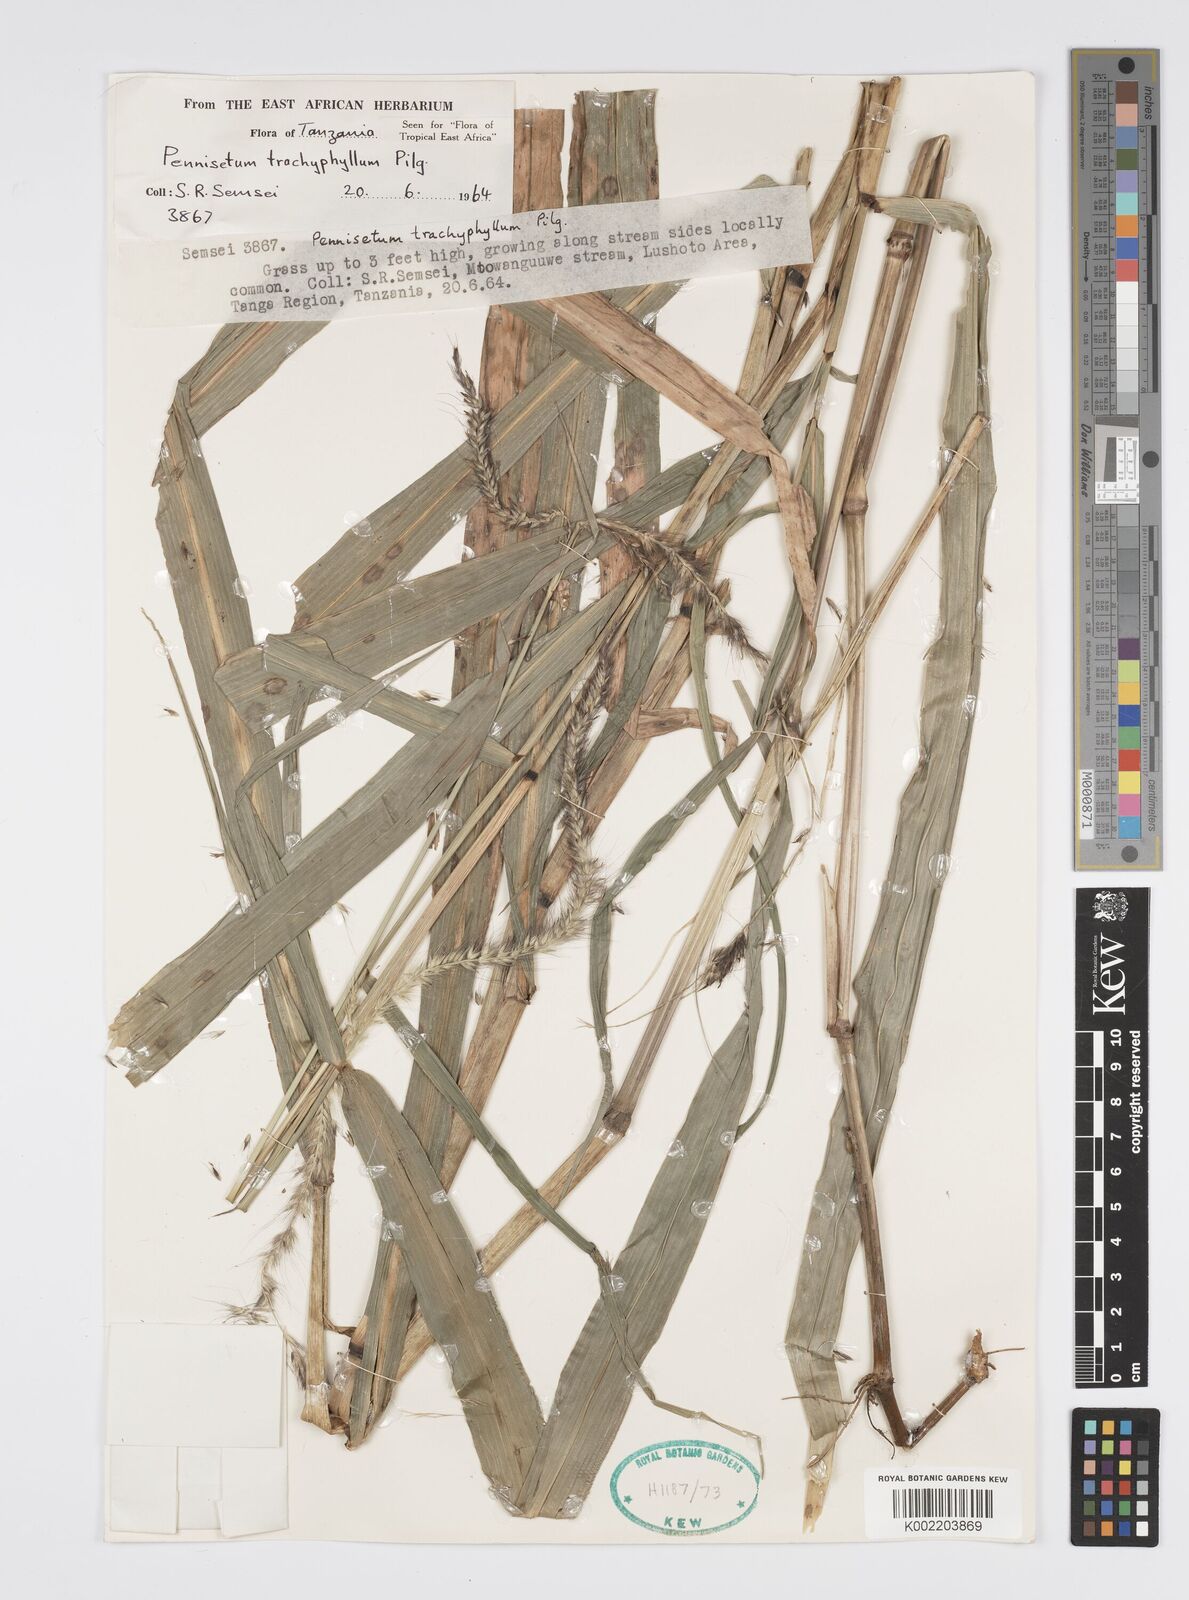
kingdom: Plantae
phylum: Tracheophyta
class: Liliopsida
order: Poales
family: Poaceae
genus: Cenchrus
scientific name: Cenchrus trachyphyllus
